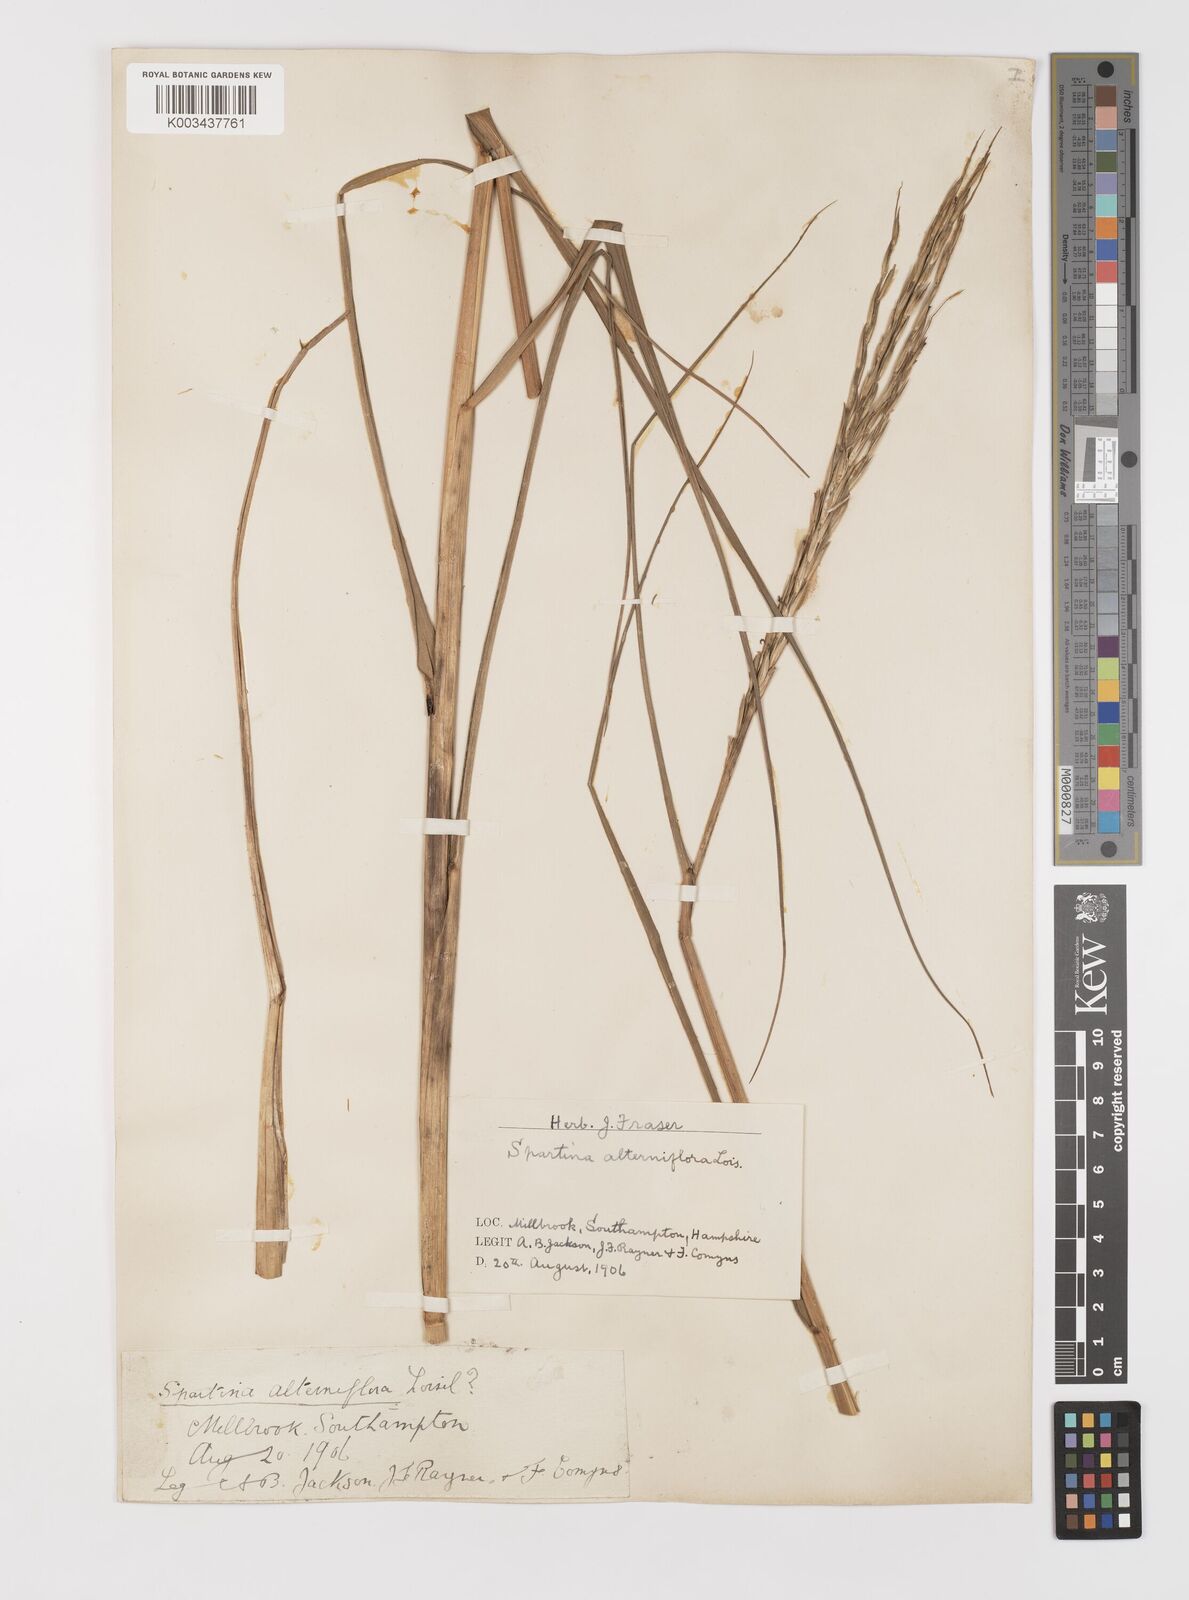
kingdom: Plantae
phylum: Tracheophyta
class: Liliopsida
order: Poales
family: Poaceae
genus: Sporobolus
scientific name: Sporobolus alterniflorus
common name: Atlantic cordgrass
